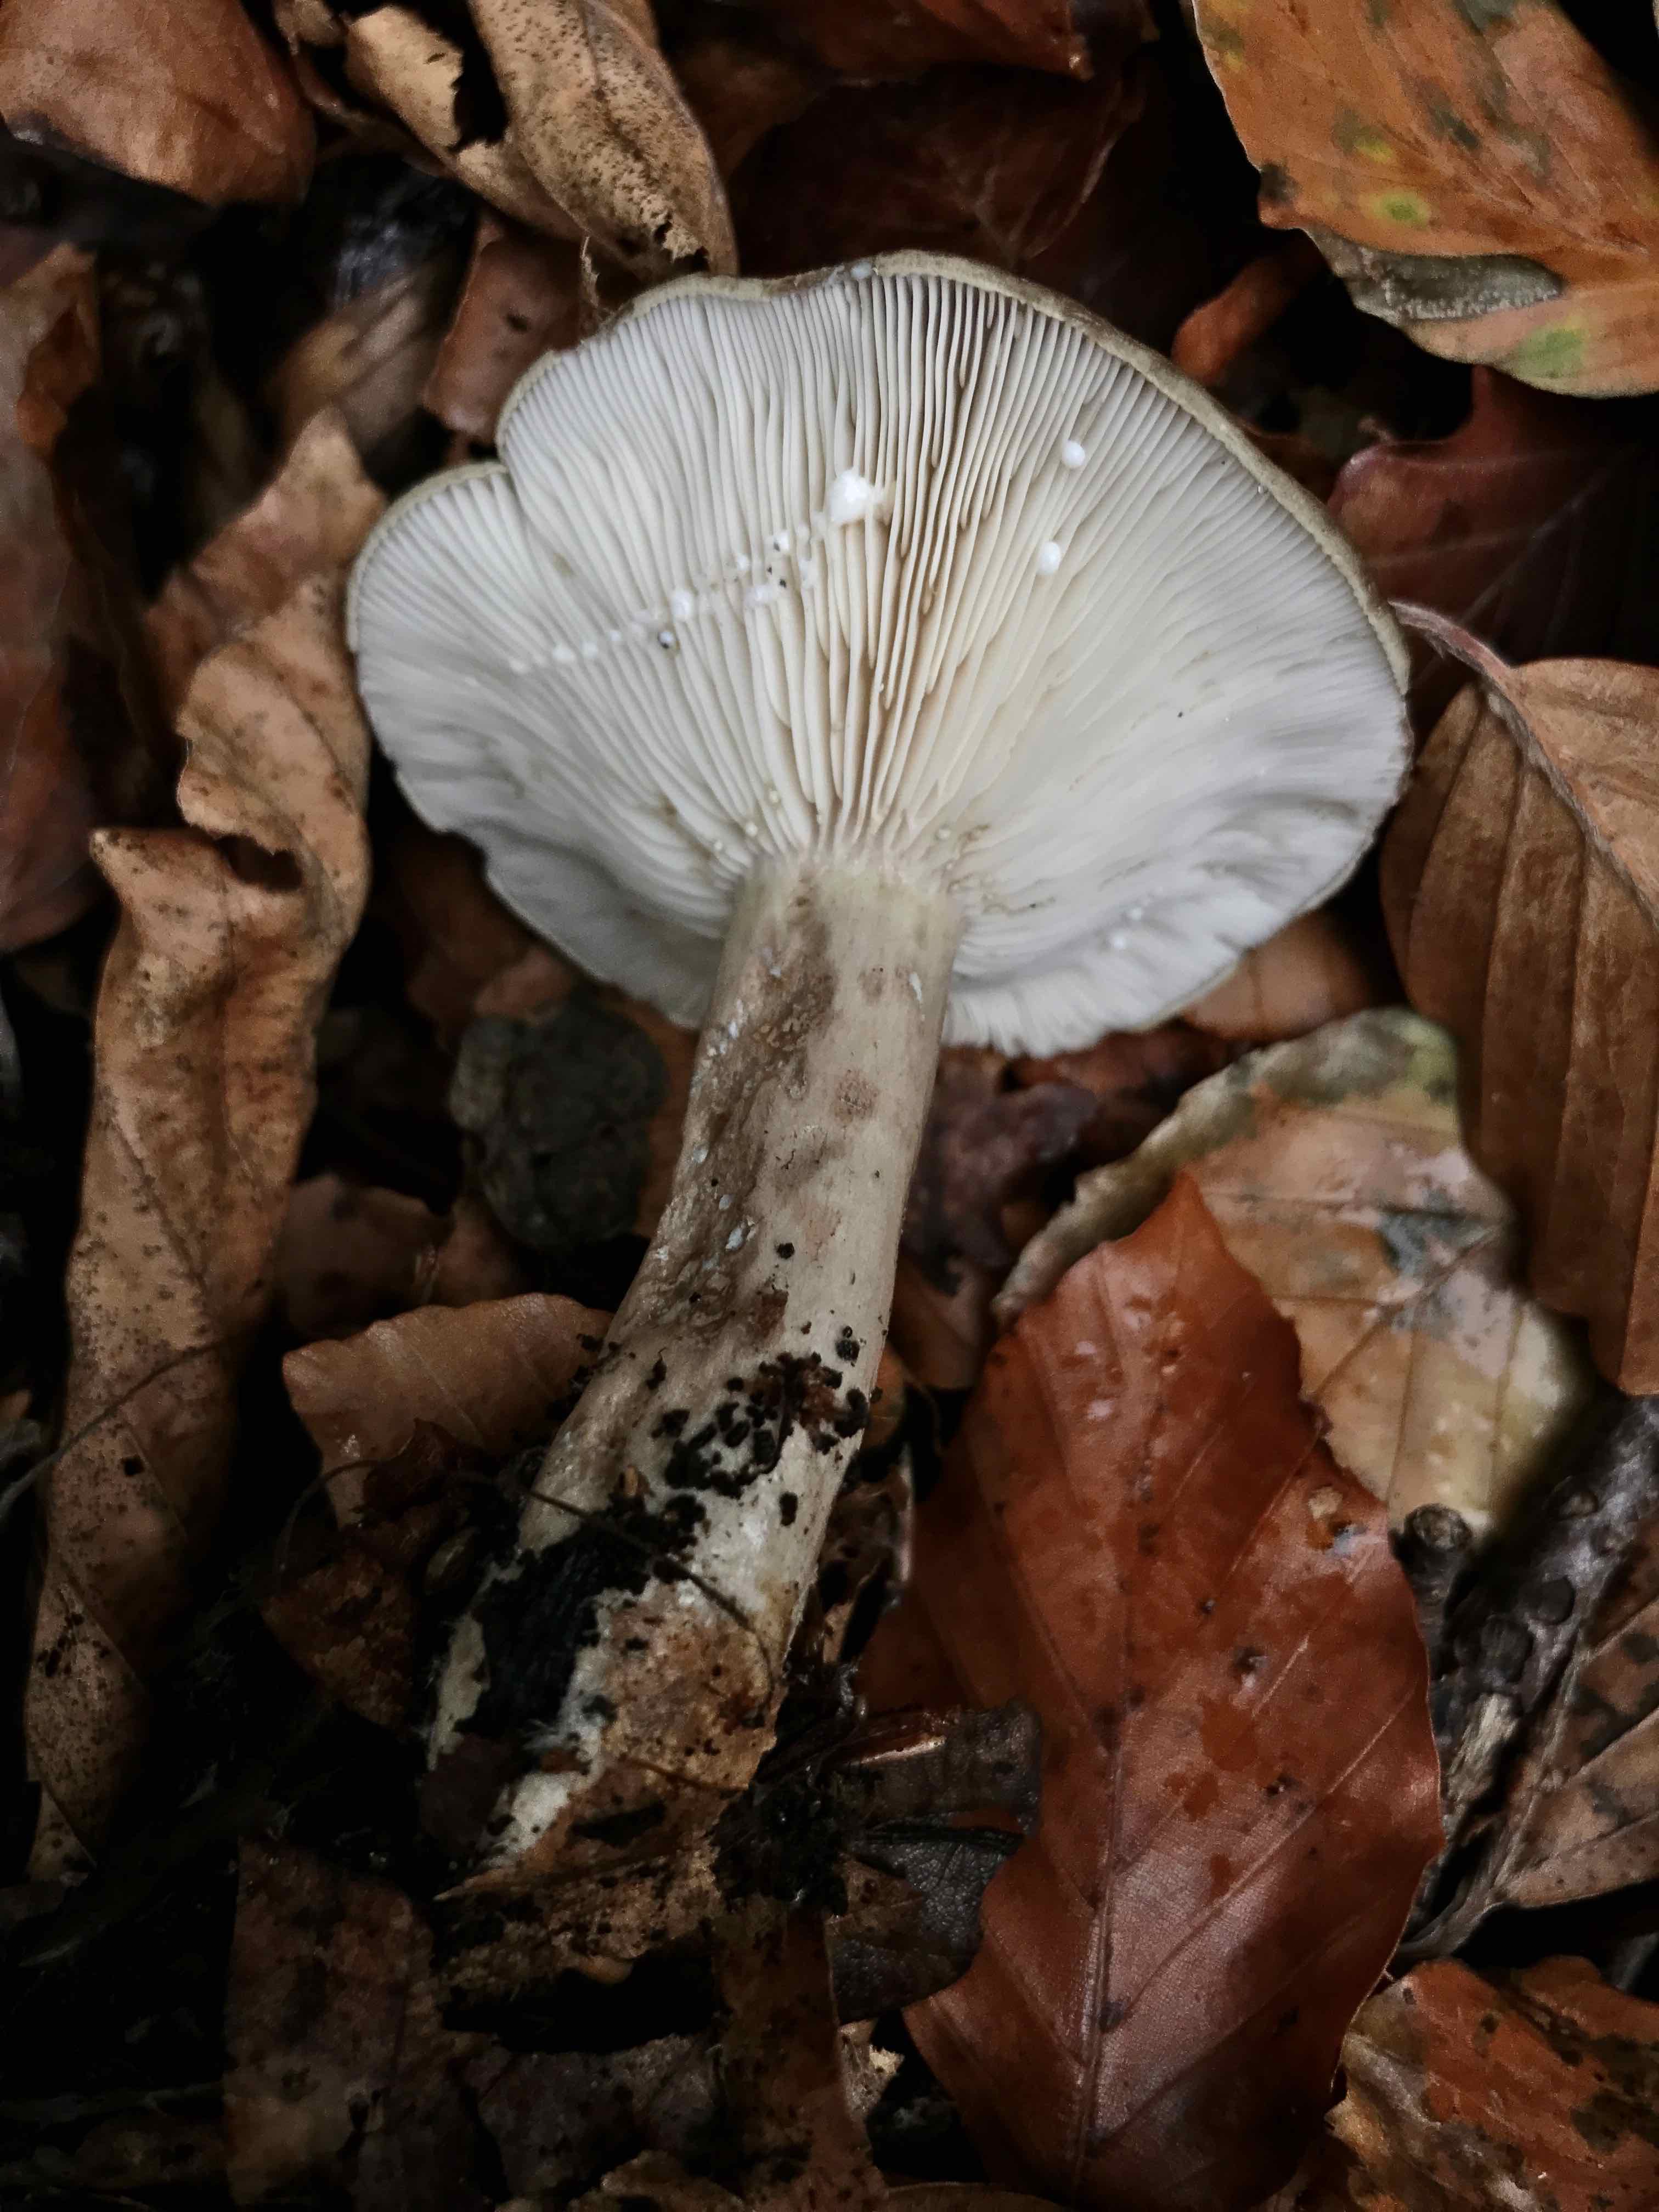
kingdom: Fungi
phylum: Basidiomycota
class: Agaricomycetes
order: Russulales
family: Russulaceae
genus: Lactarius
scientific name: Lactarius blennius
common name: dråbeplettet mælkehat
